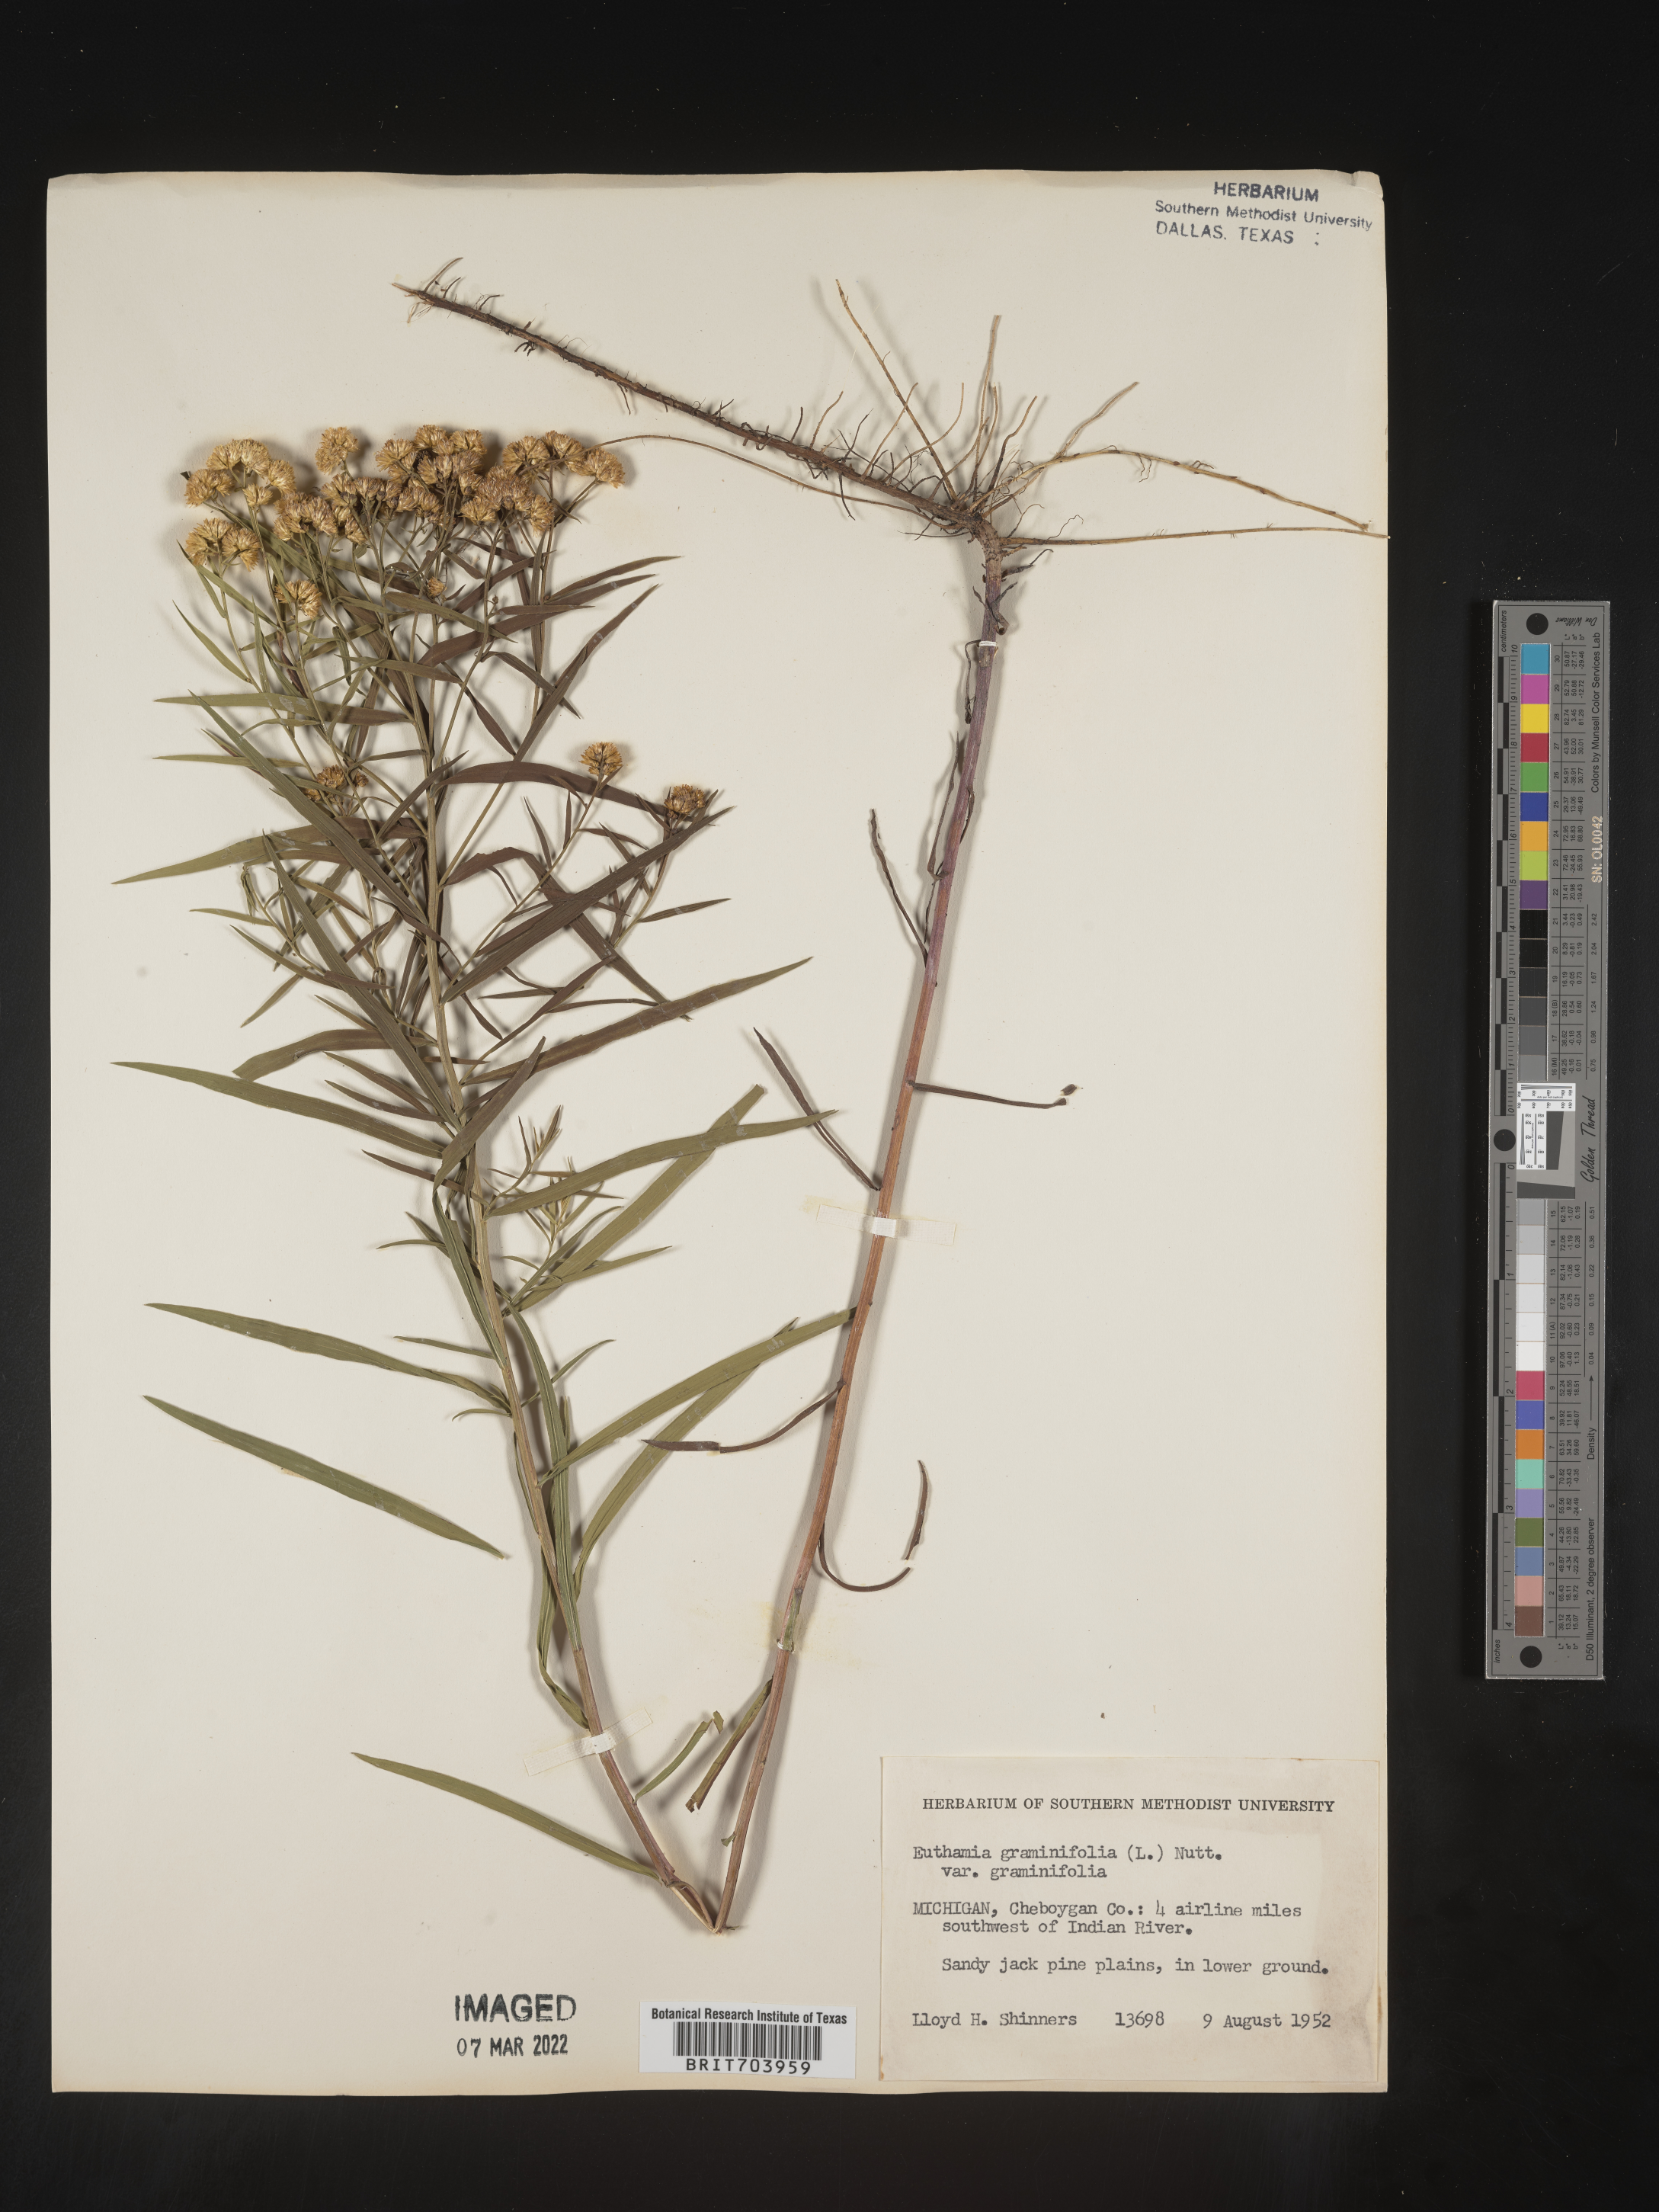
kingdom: Plantae
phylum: Tracheophyta
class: Magnoliopsida
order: Asterales
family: Asteraceae
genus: Euthamia
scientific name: Euthamia graminifolia
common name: Common goldentop
